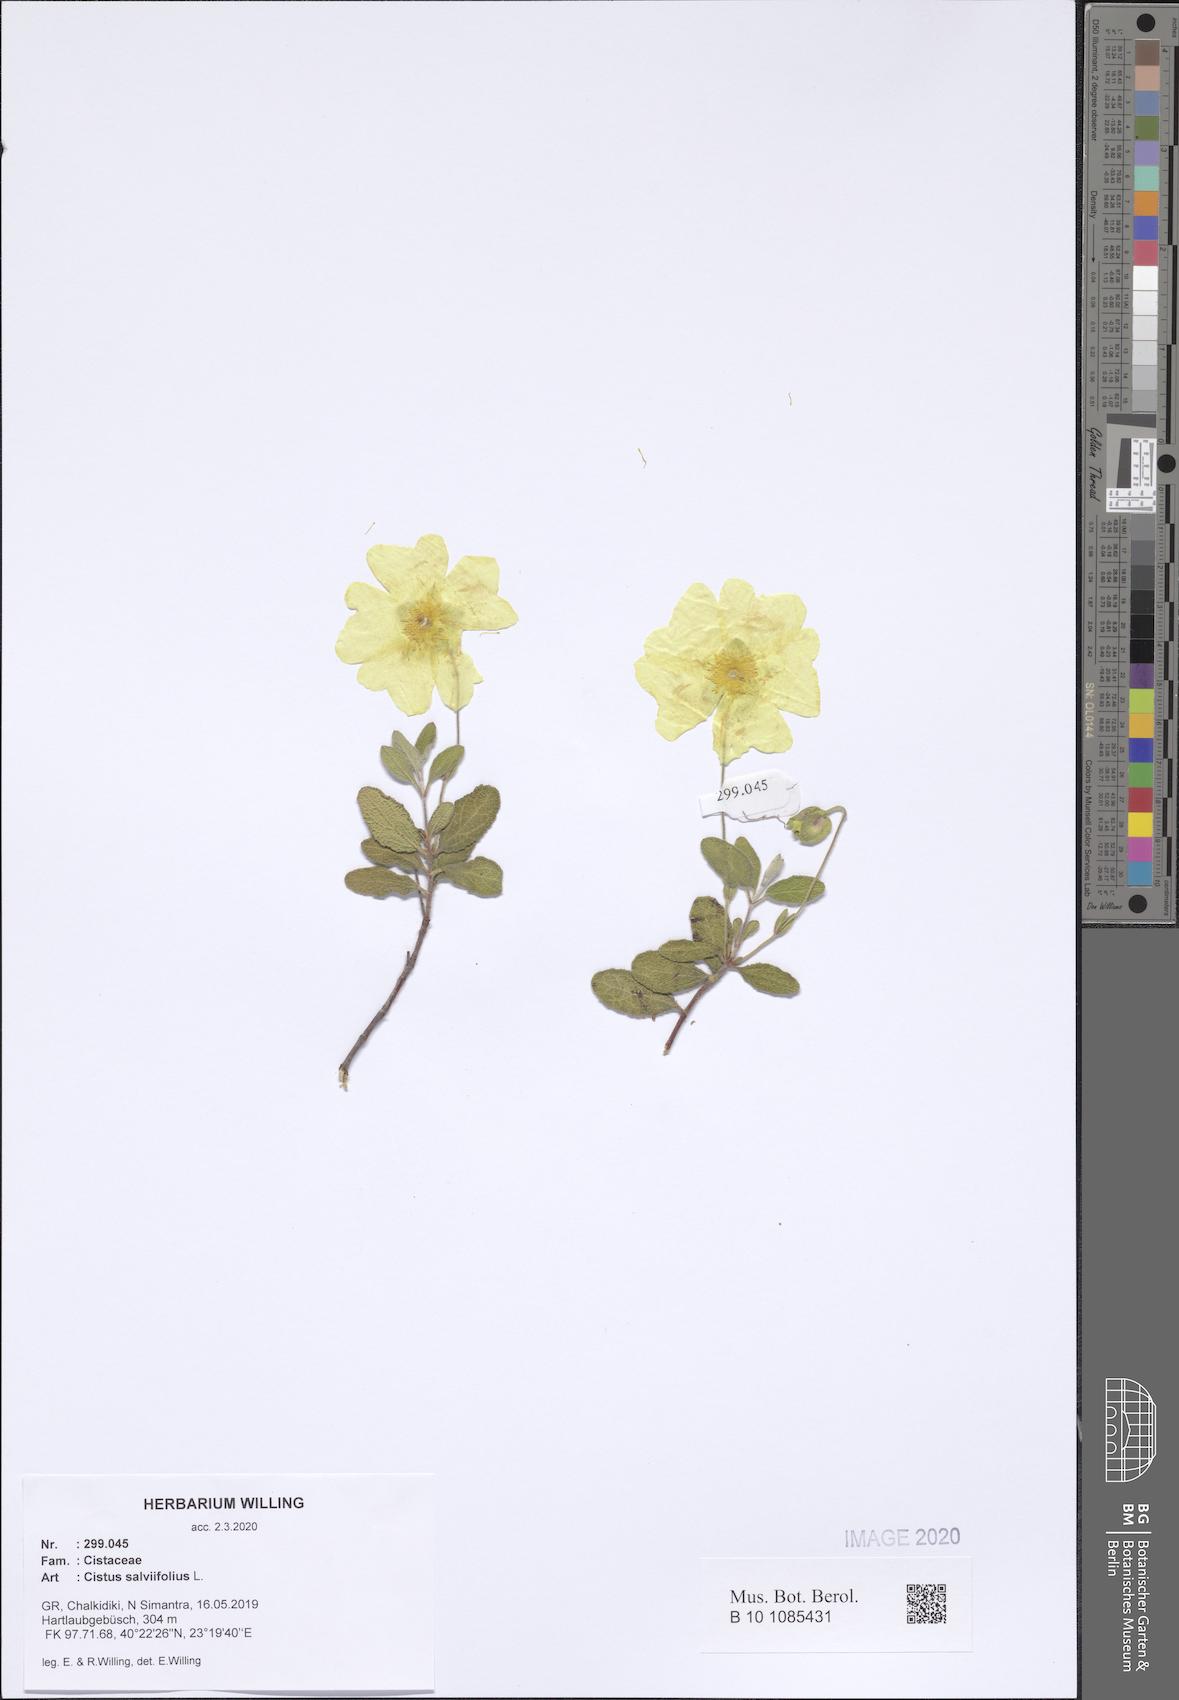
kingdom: Plantae
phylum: Tracheophyta
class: Magnoliopsida
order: Malvales
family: Cistaceae
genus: Cistus
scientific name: Cistus salviifolius
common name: Salvia cistus
